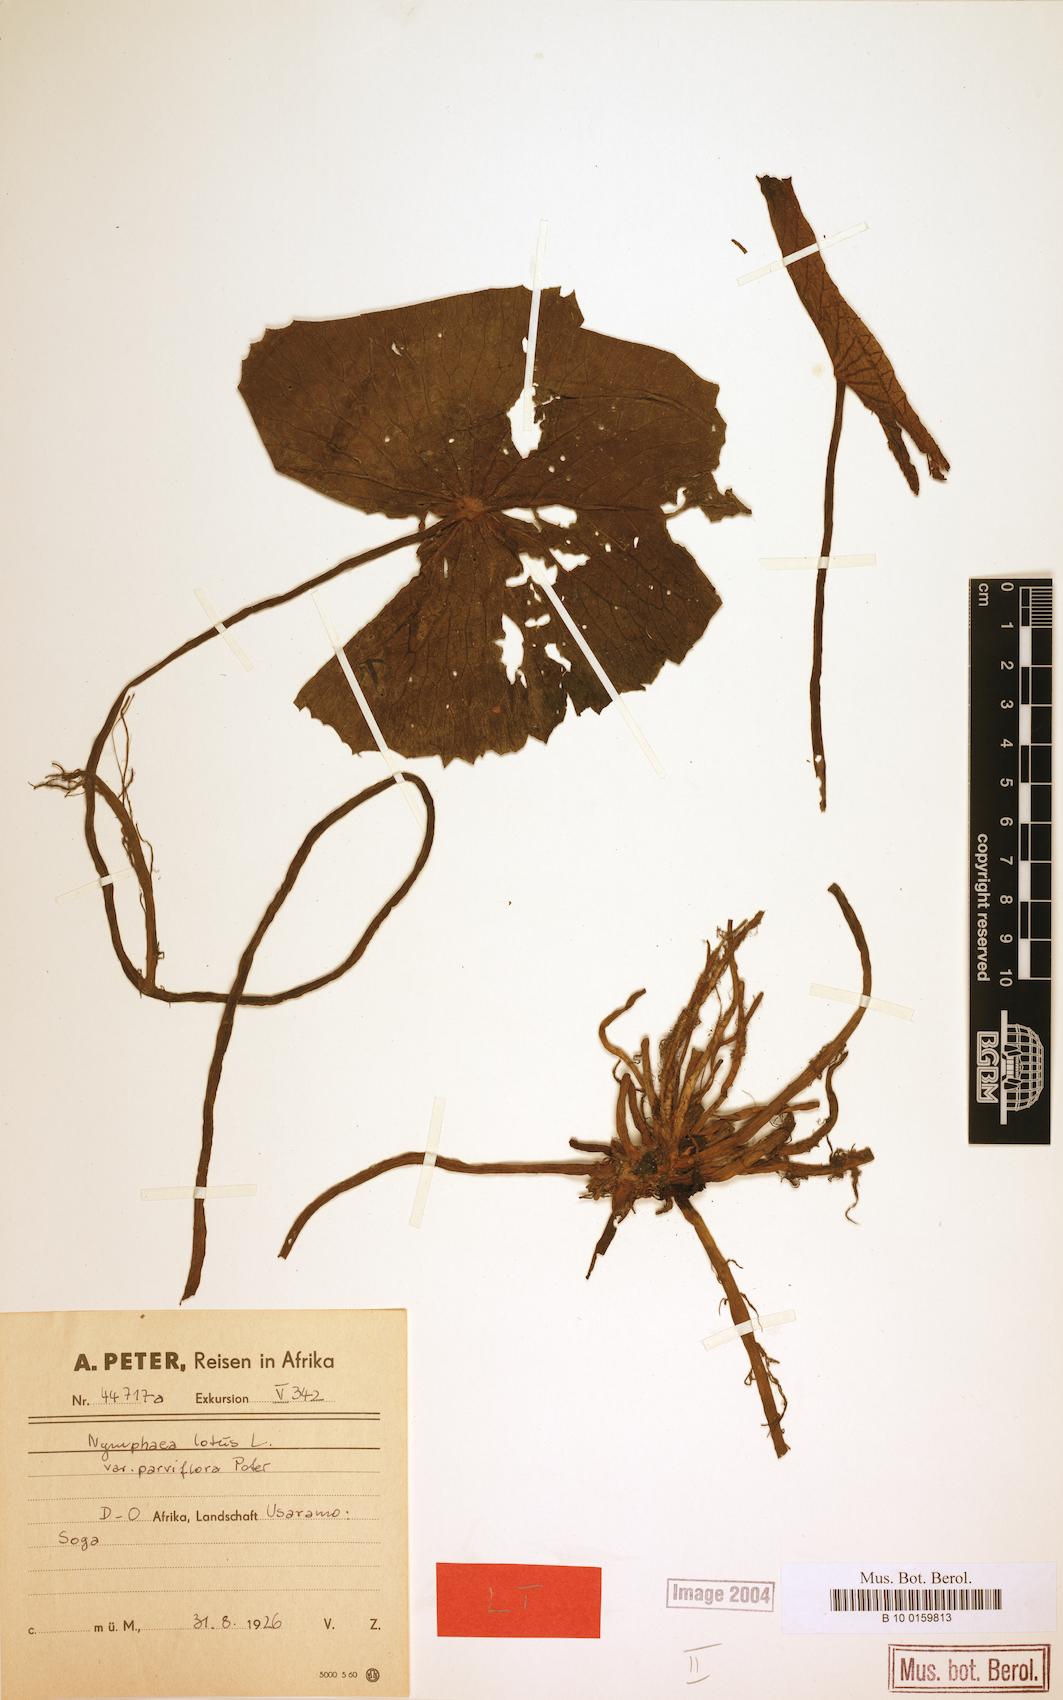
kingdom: Plantae
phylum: Tracheophyta
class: Magnoliopsida
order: Nymphaeales
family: Nymphaeaceae
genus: Nymphaea
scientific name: Nymphaea lotus
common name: White egyptian lotus
